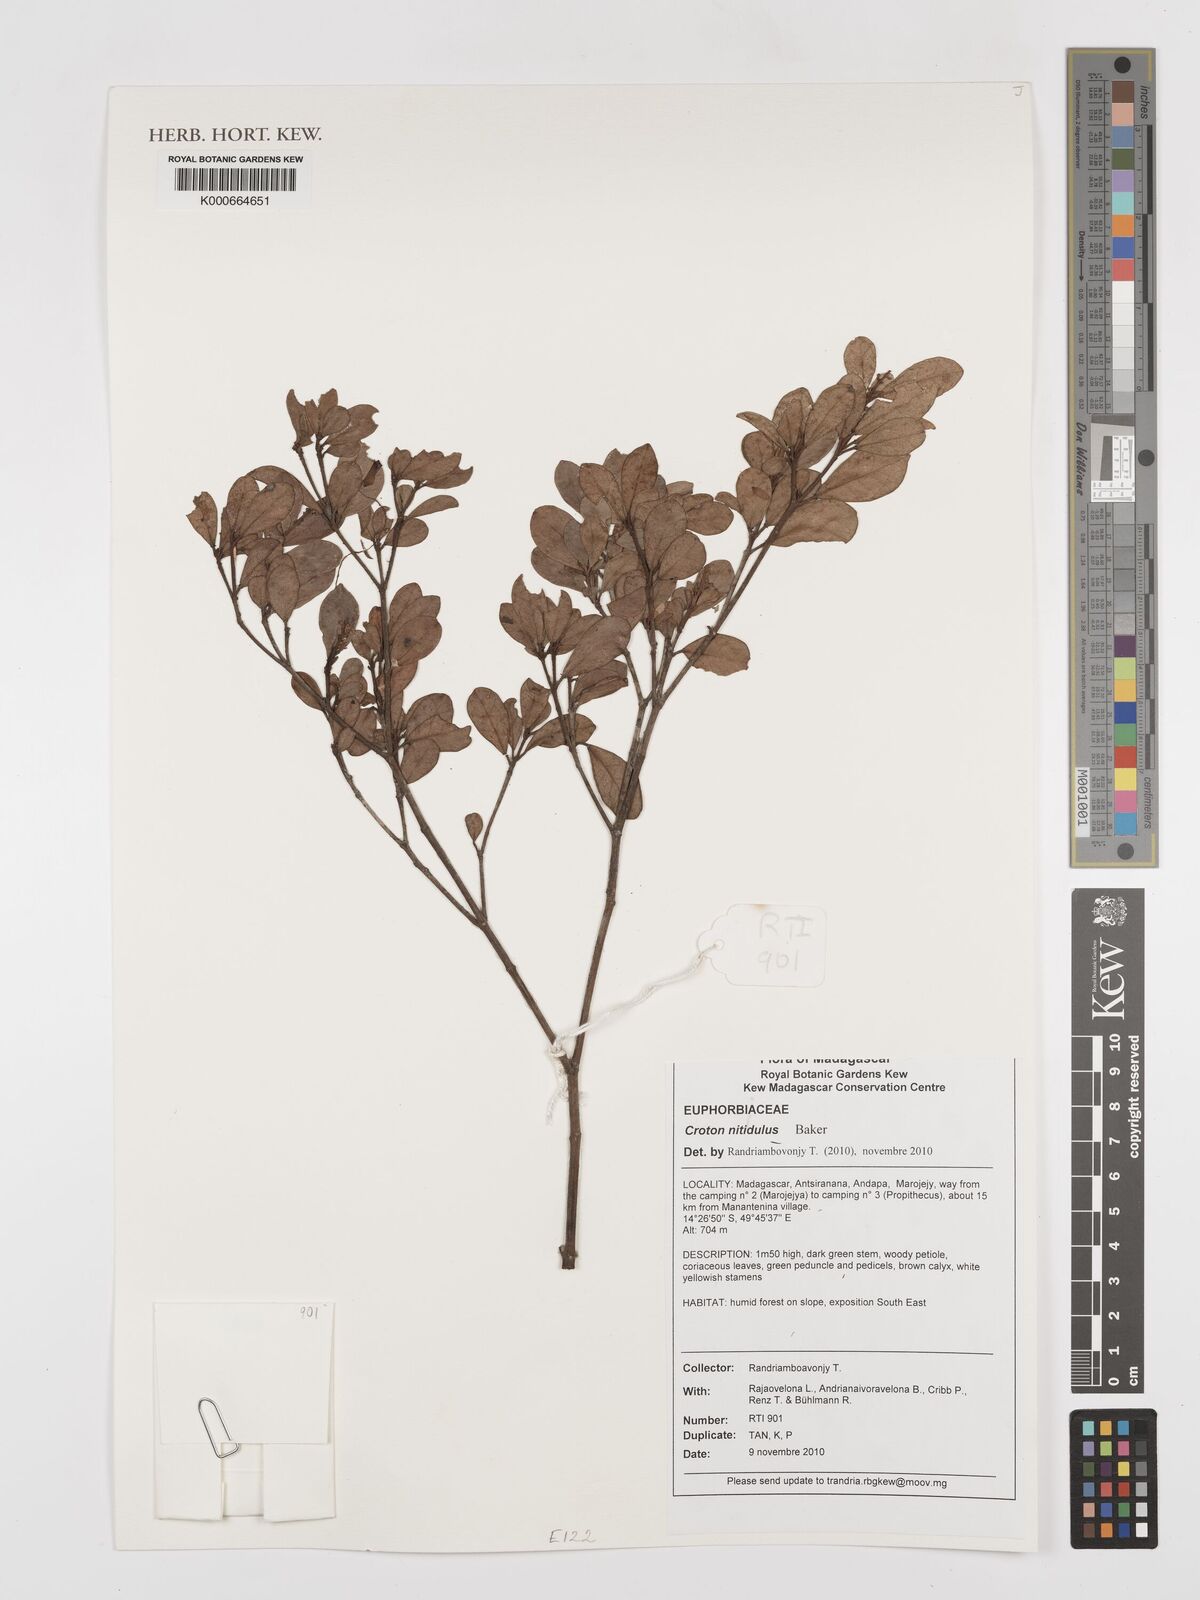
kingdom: Plantae
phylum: Tracheophyta
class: Magnoliopsida
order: Malpighiales
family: Euphorbiaceae
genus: Croton
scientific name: Croton nitidulus
